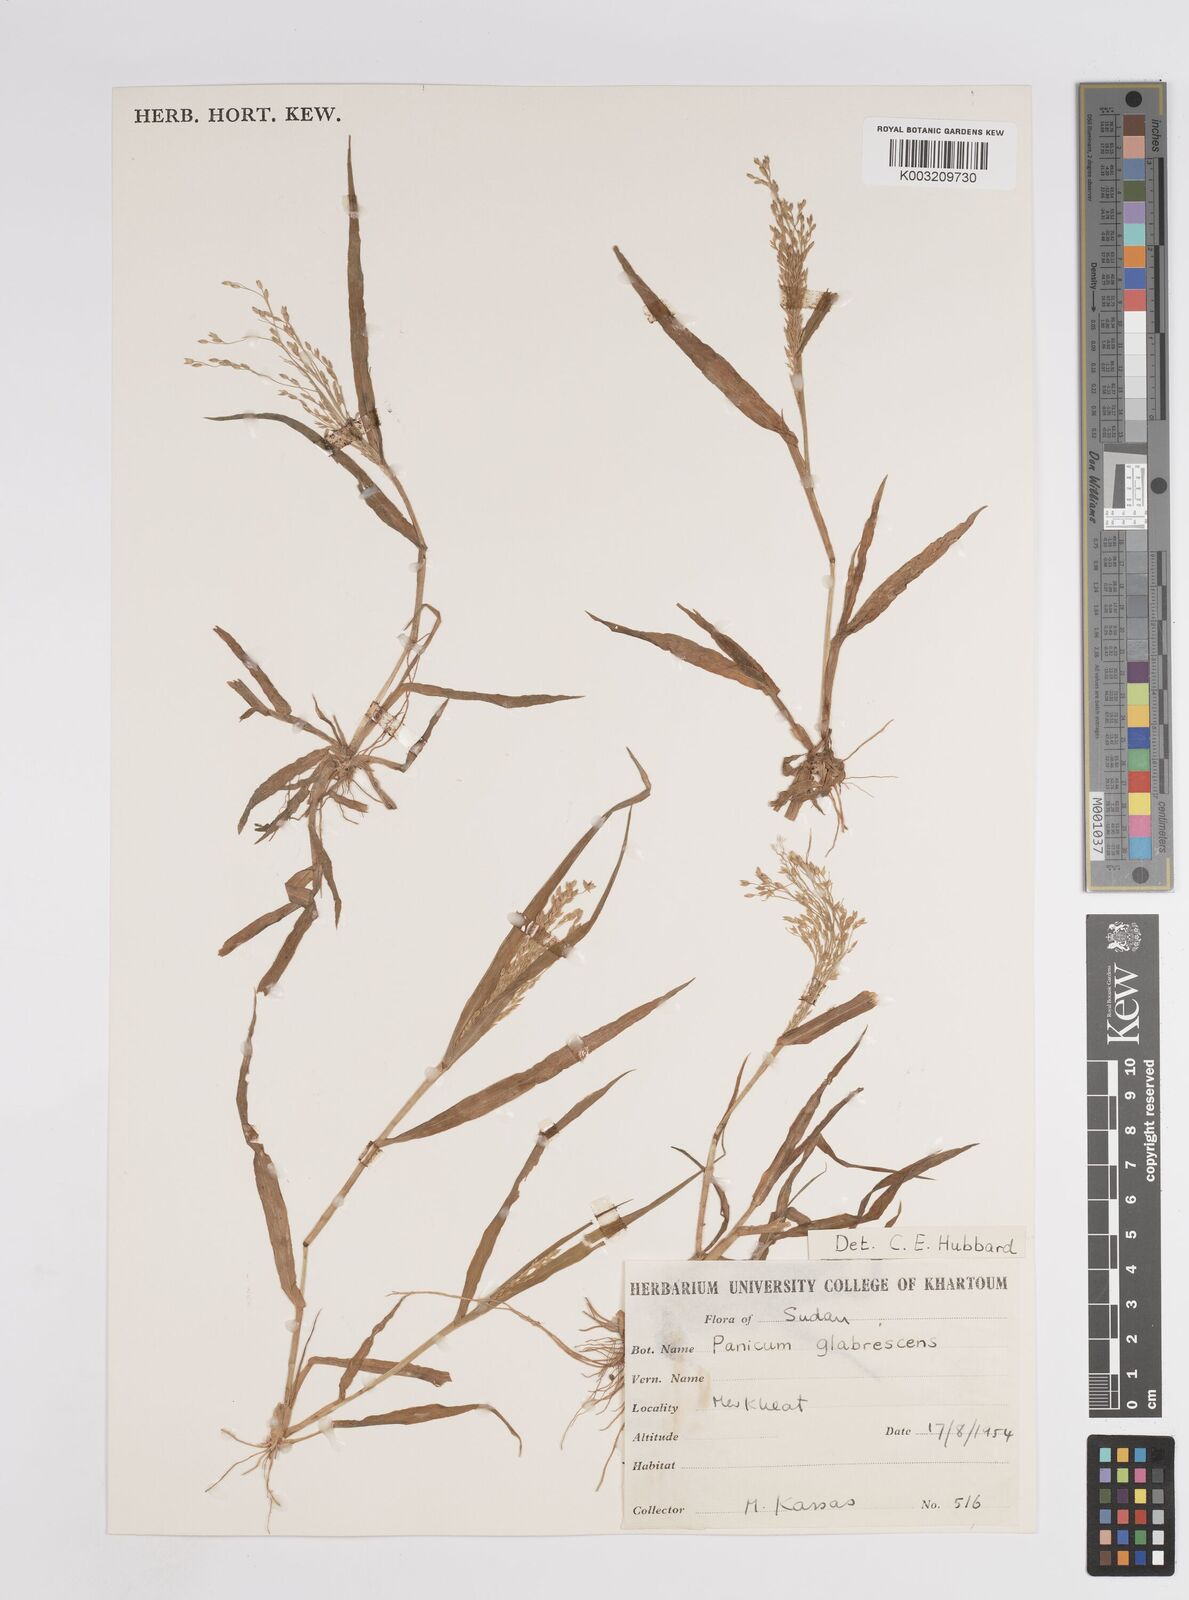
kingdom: Plantae
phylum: Tracheophyta
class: Liliopsida
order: Poales
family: Poaceae
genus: Panicum
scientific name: Panicum
